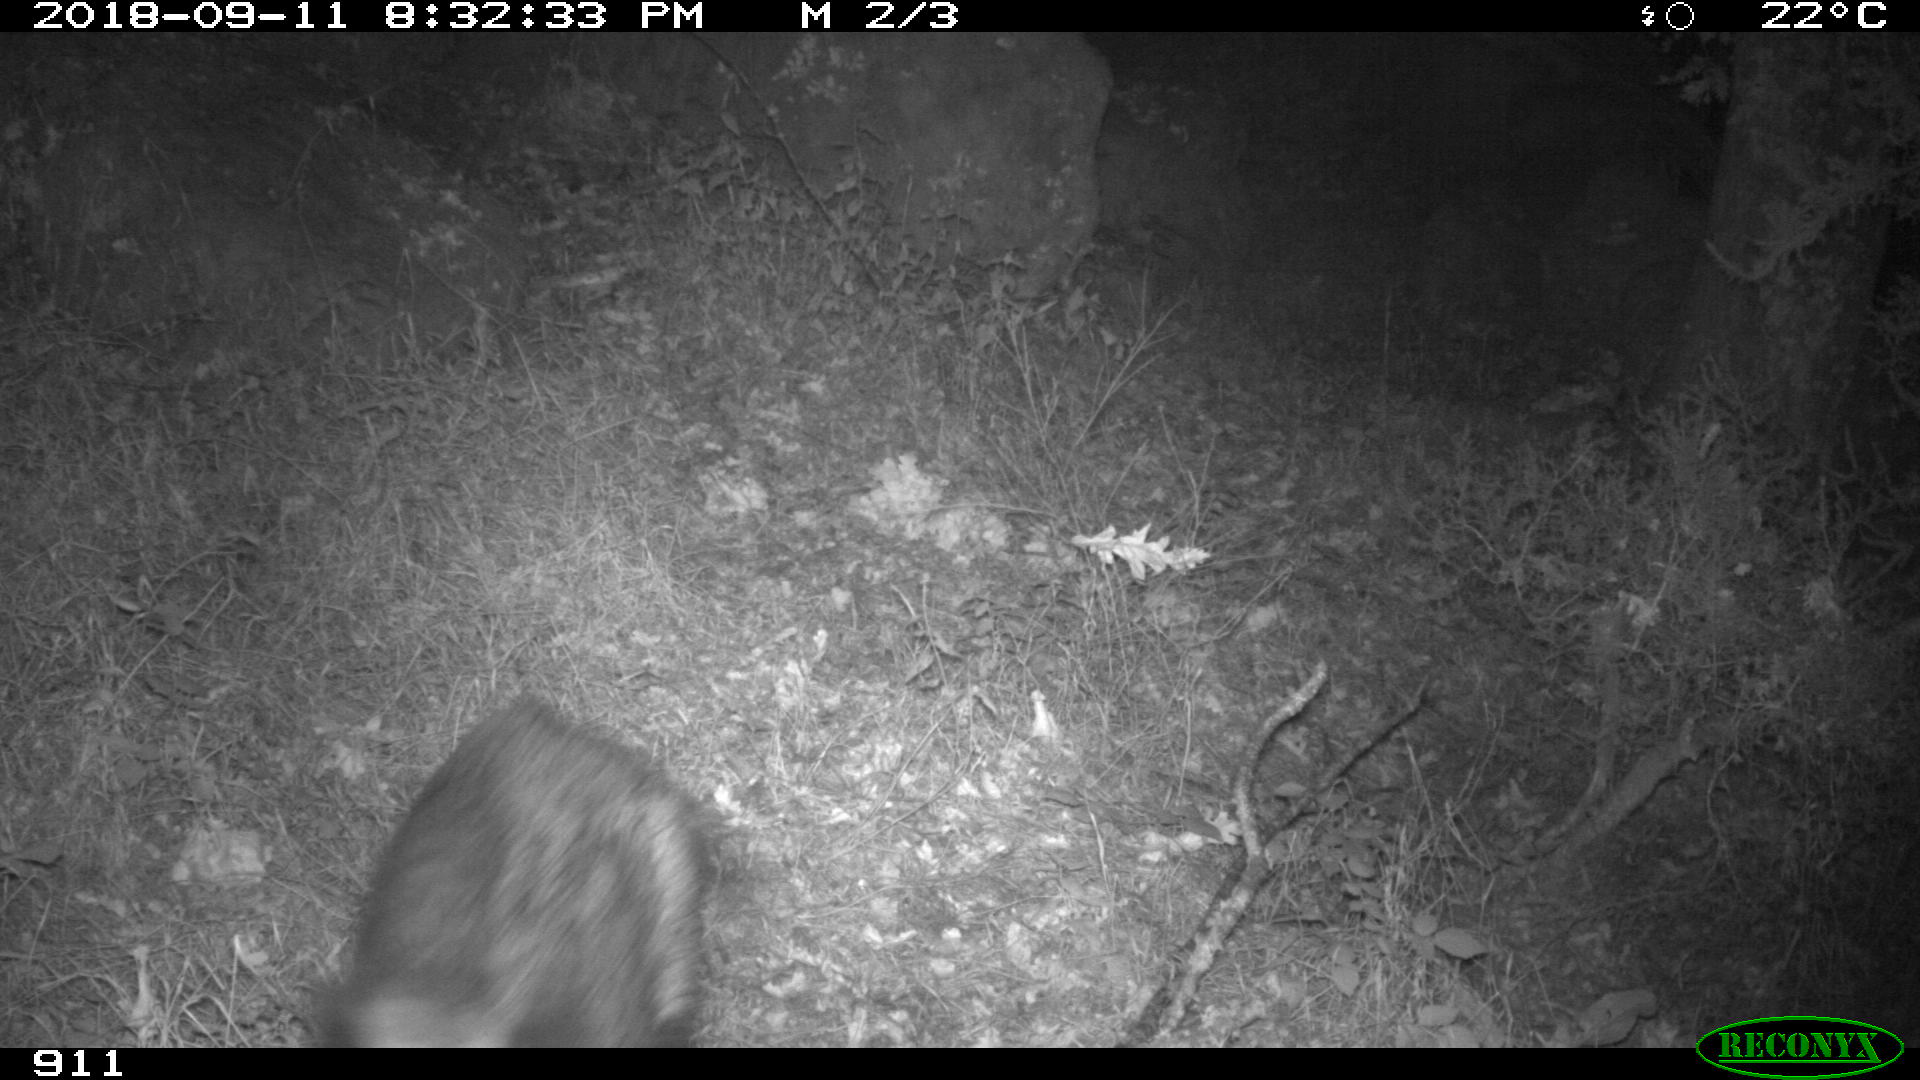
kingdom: Animalia
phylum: Chordata
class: Mammalia
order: Artiodactyla
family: Suidae
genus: Sus
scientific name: Sus scrofa
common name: Wild boar
